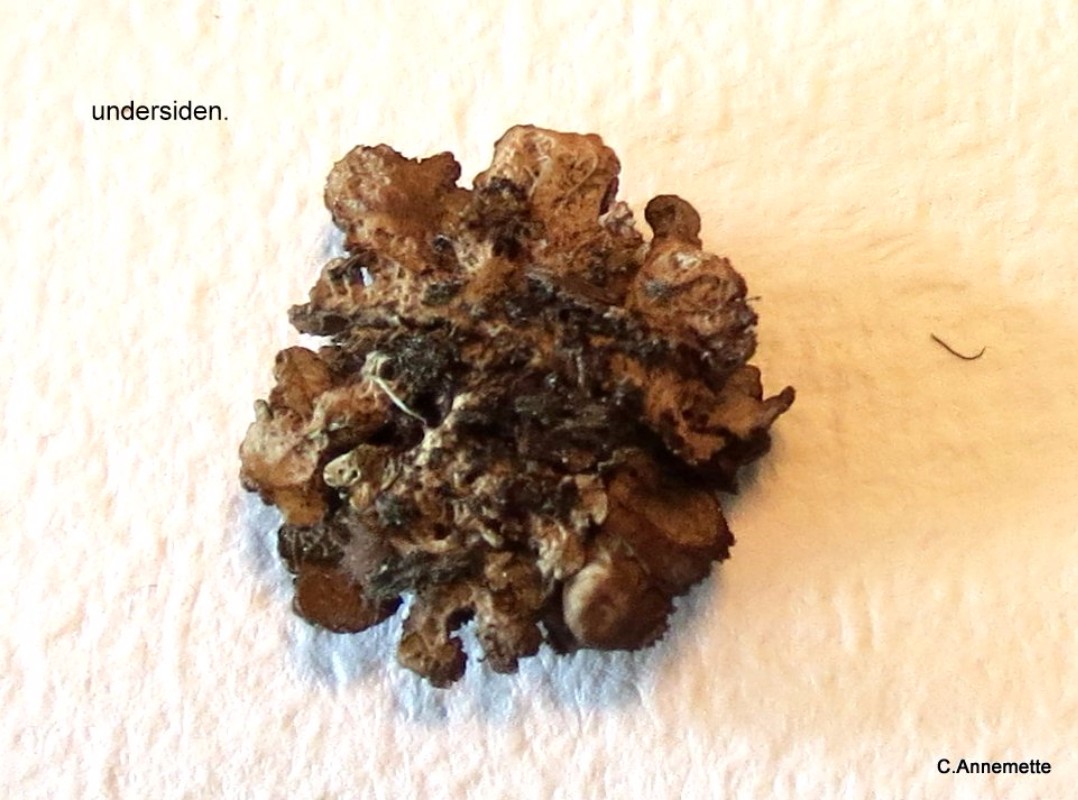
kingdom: Fungi
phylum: Ascomycota
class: Lecanoromycetes
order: Lecanorales
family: Parmeliaceae
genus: Cetraria
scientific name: Cetraria sepincola
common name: tue-kruslav
